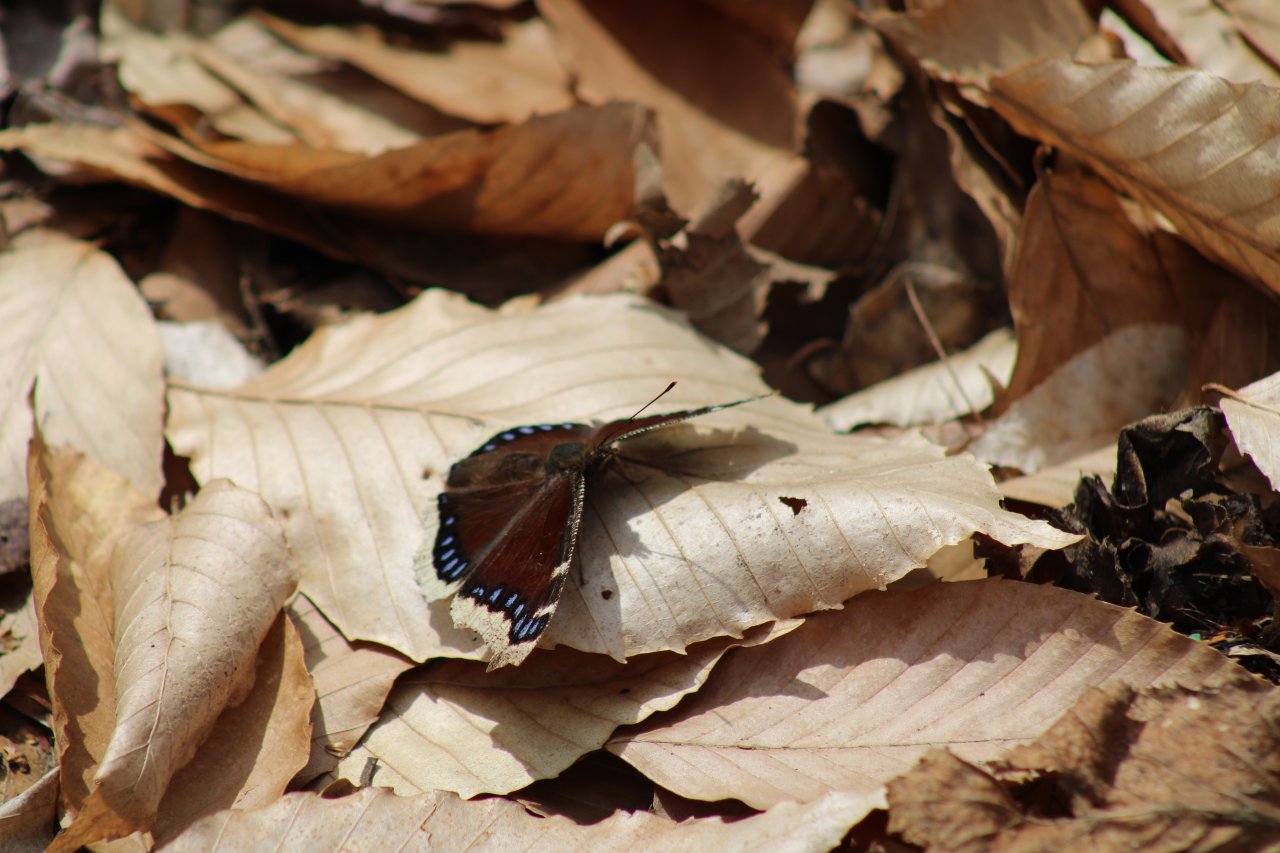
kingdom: Animalia
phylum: Arthropoda
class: Insecta
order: Lepidoptera
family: Nymphalidae
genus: Nymphalis
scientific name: Nymphalis antiopa
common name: Mourning Cloak
